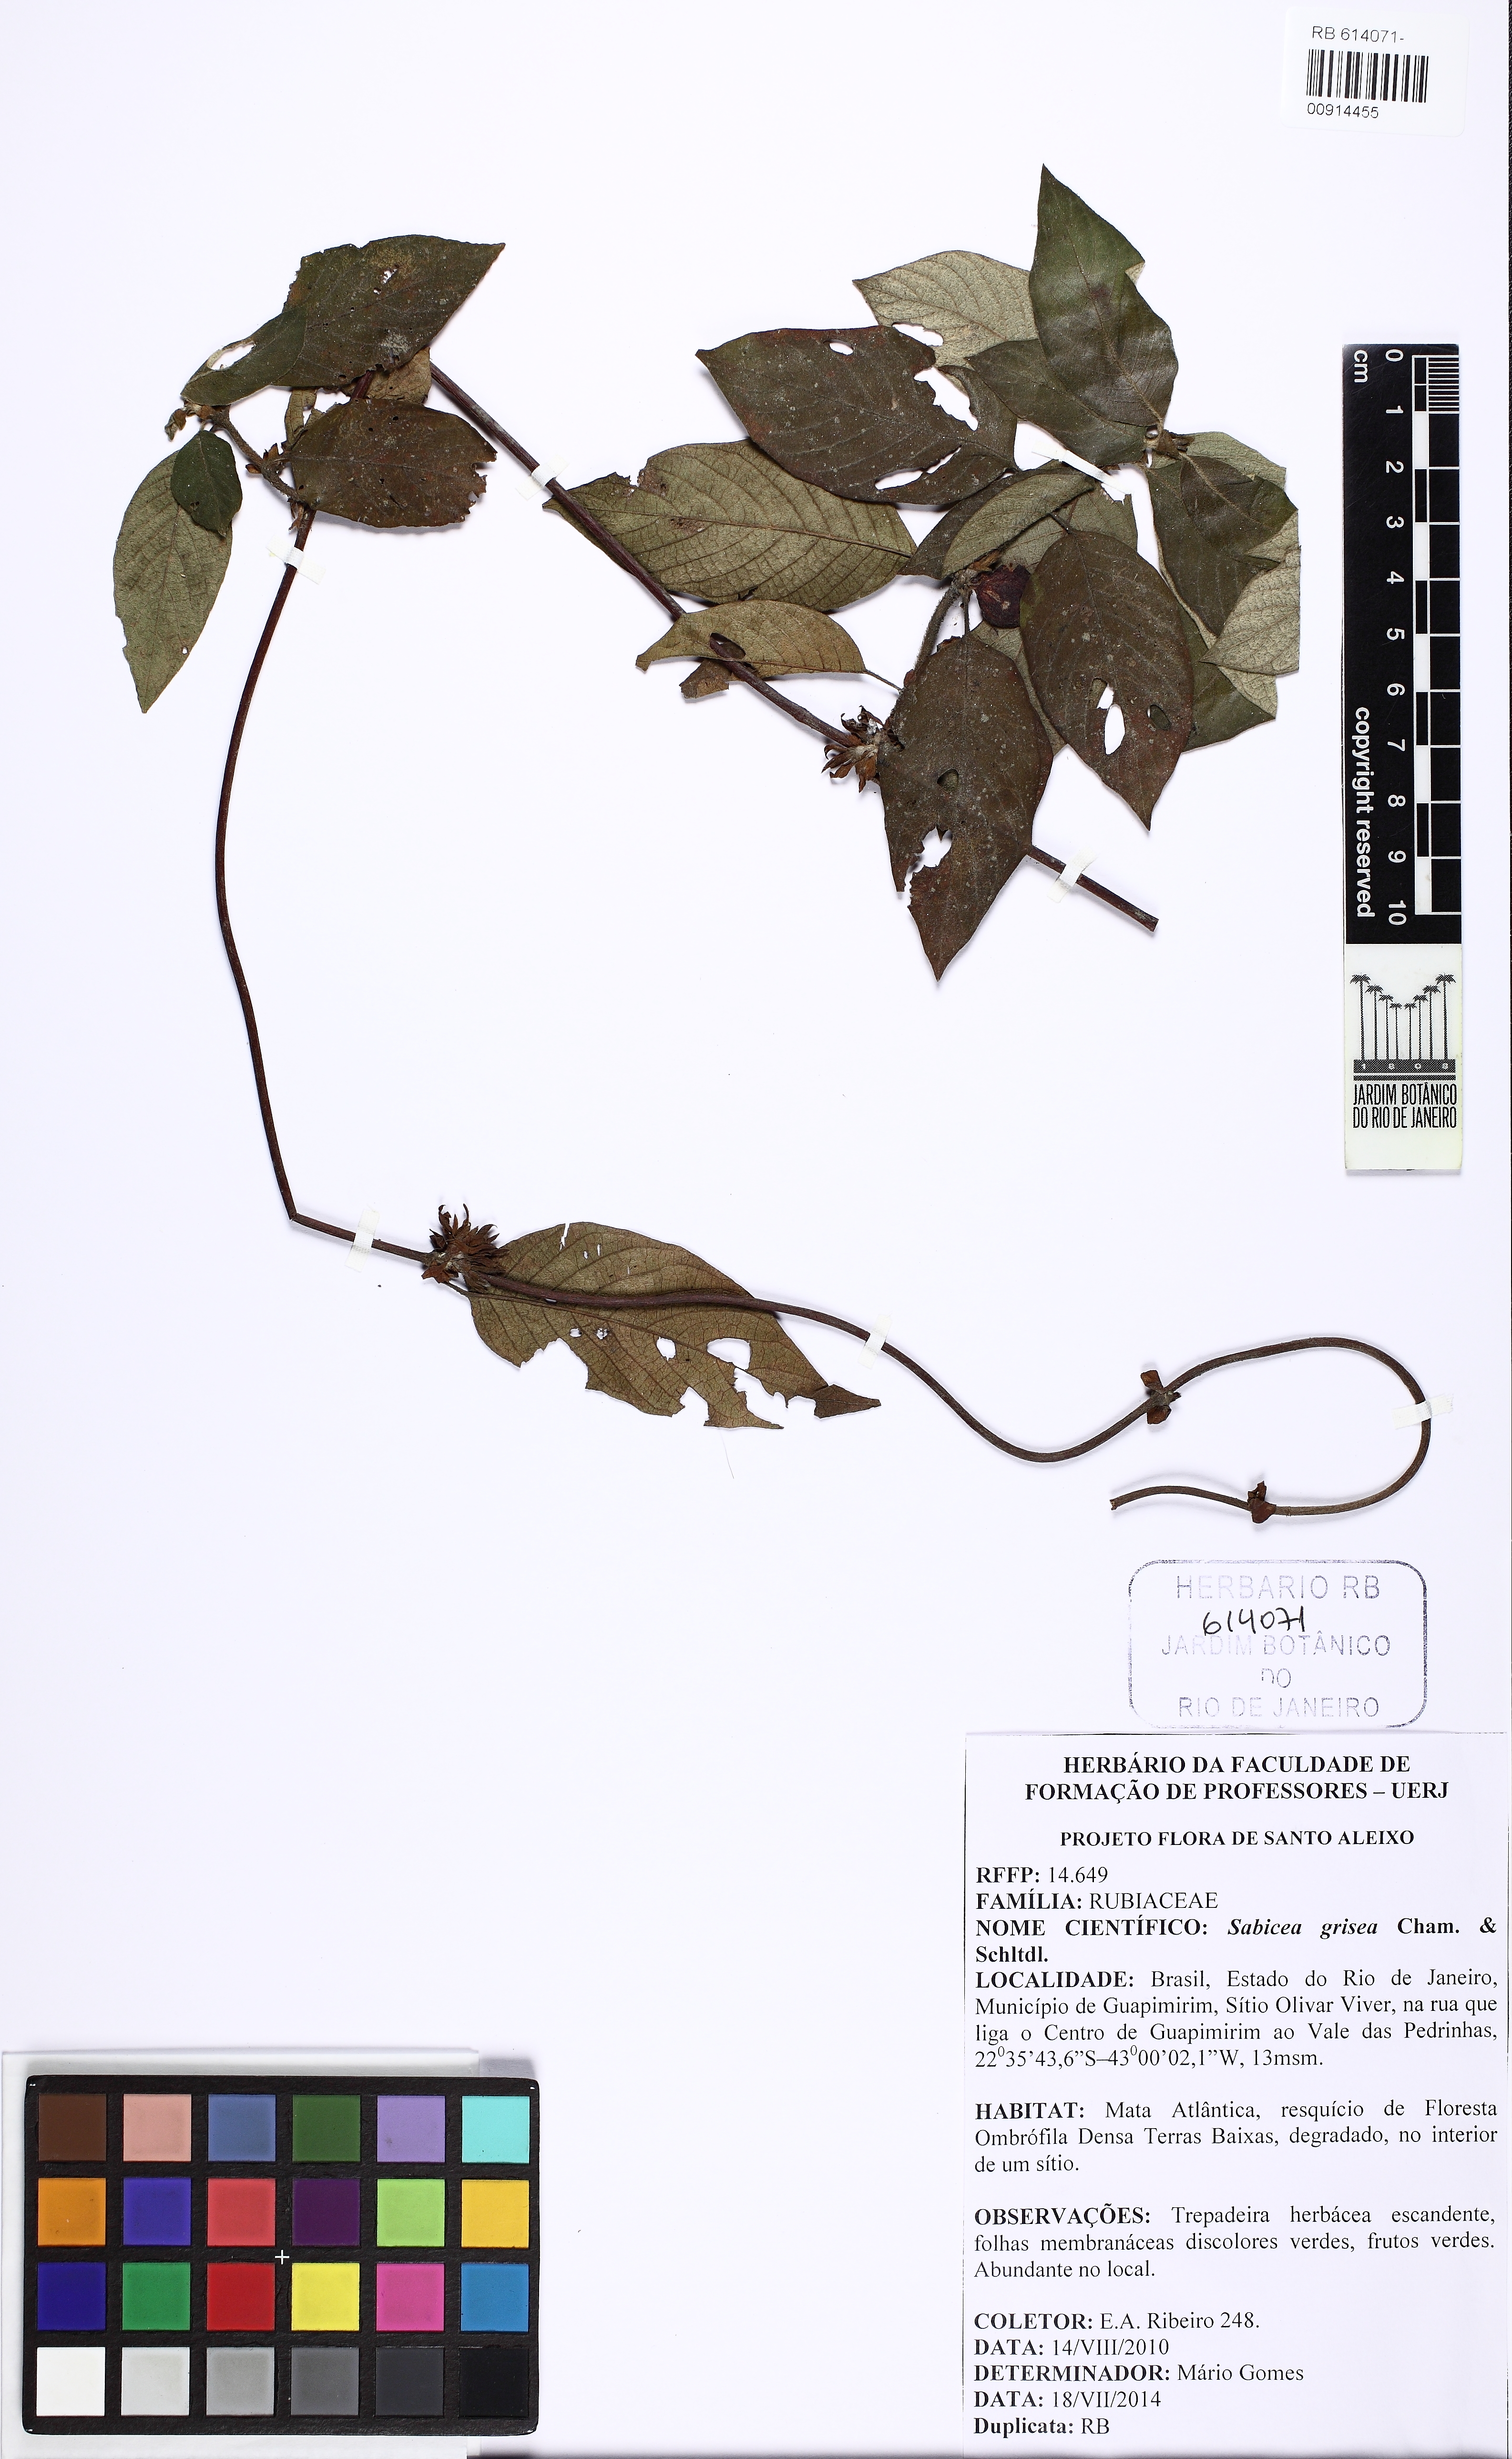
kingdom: Plantae
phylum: Tracheophyta
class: Magnoliopsida
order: Gentianales
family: Rubiaceae
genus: Sabicea
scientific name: Sabicea grisea
